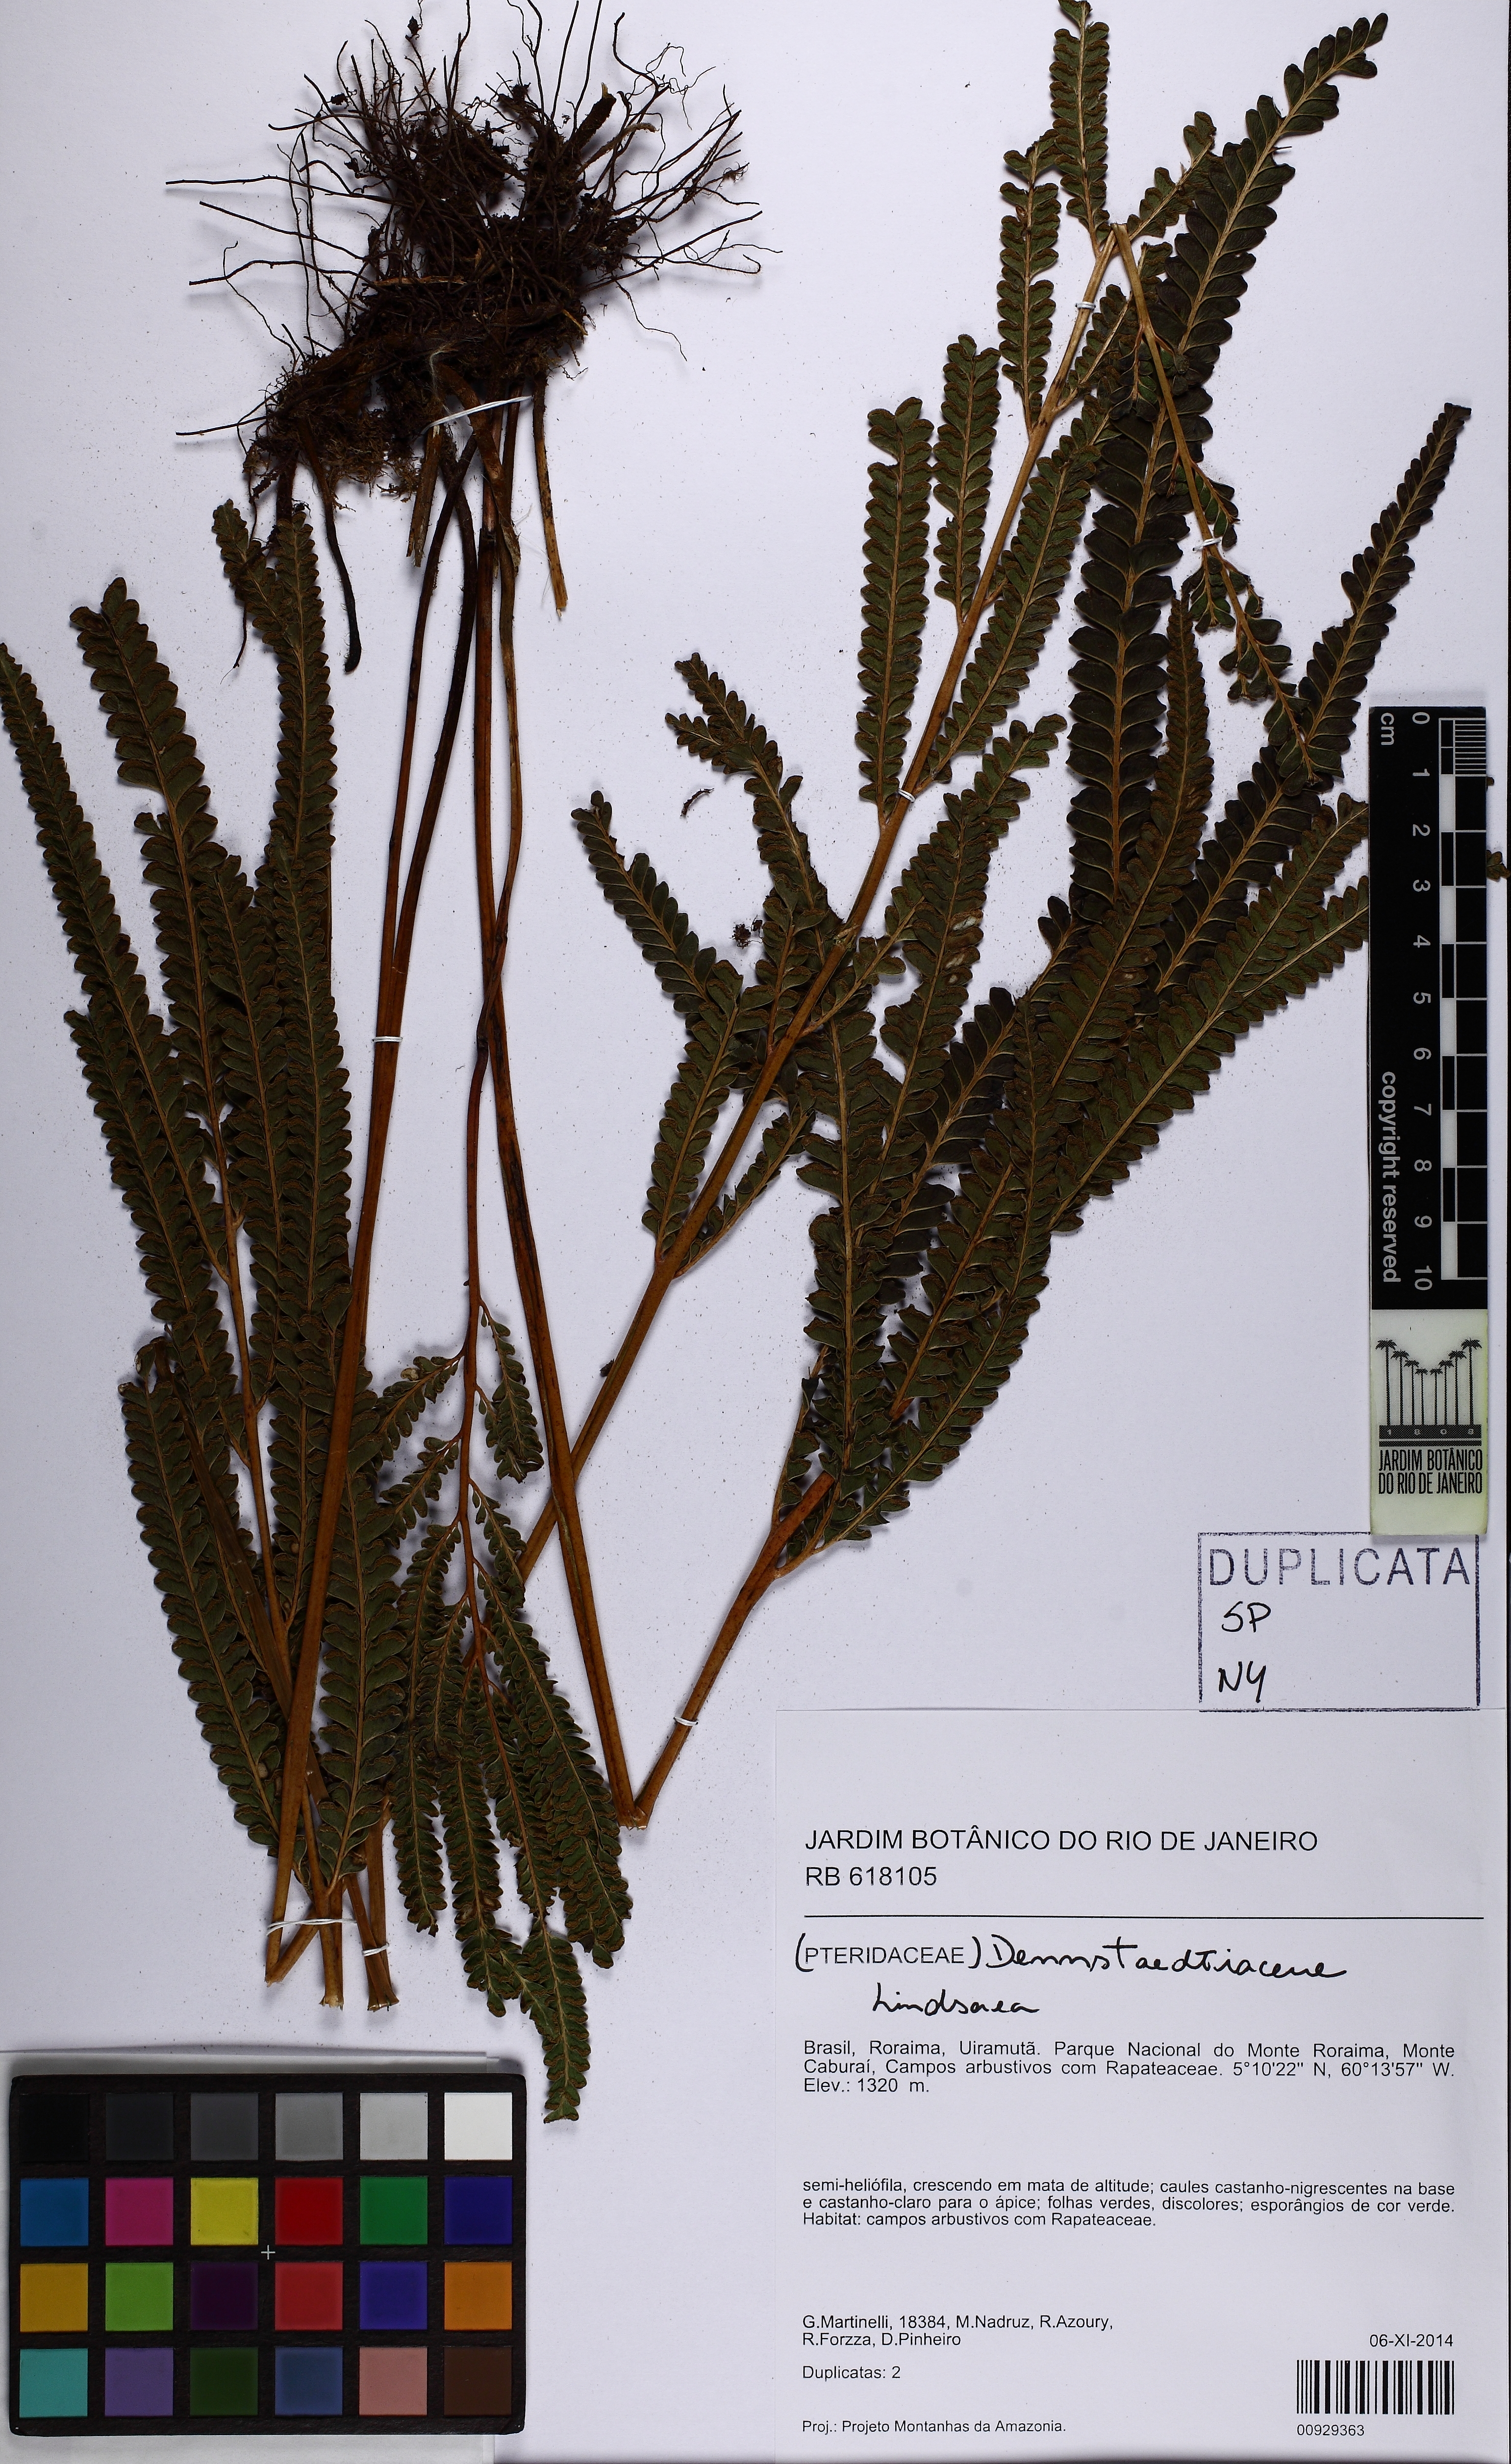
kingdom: Plantae
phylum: Tracheophyta
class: Polypodiopsida
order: Polypodiales
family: Lindsaeaceae
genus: Lindsaea
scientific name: Lindsaea
